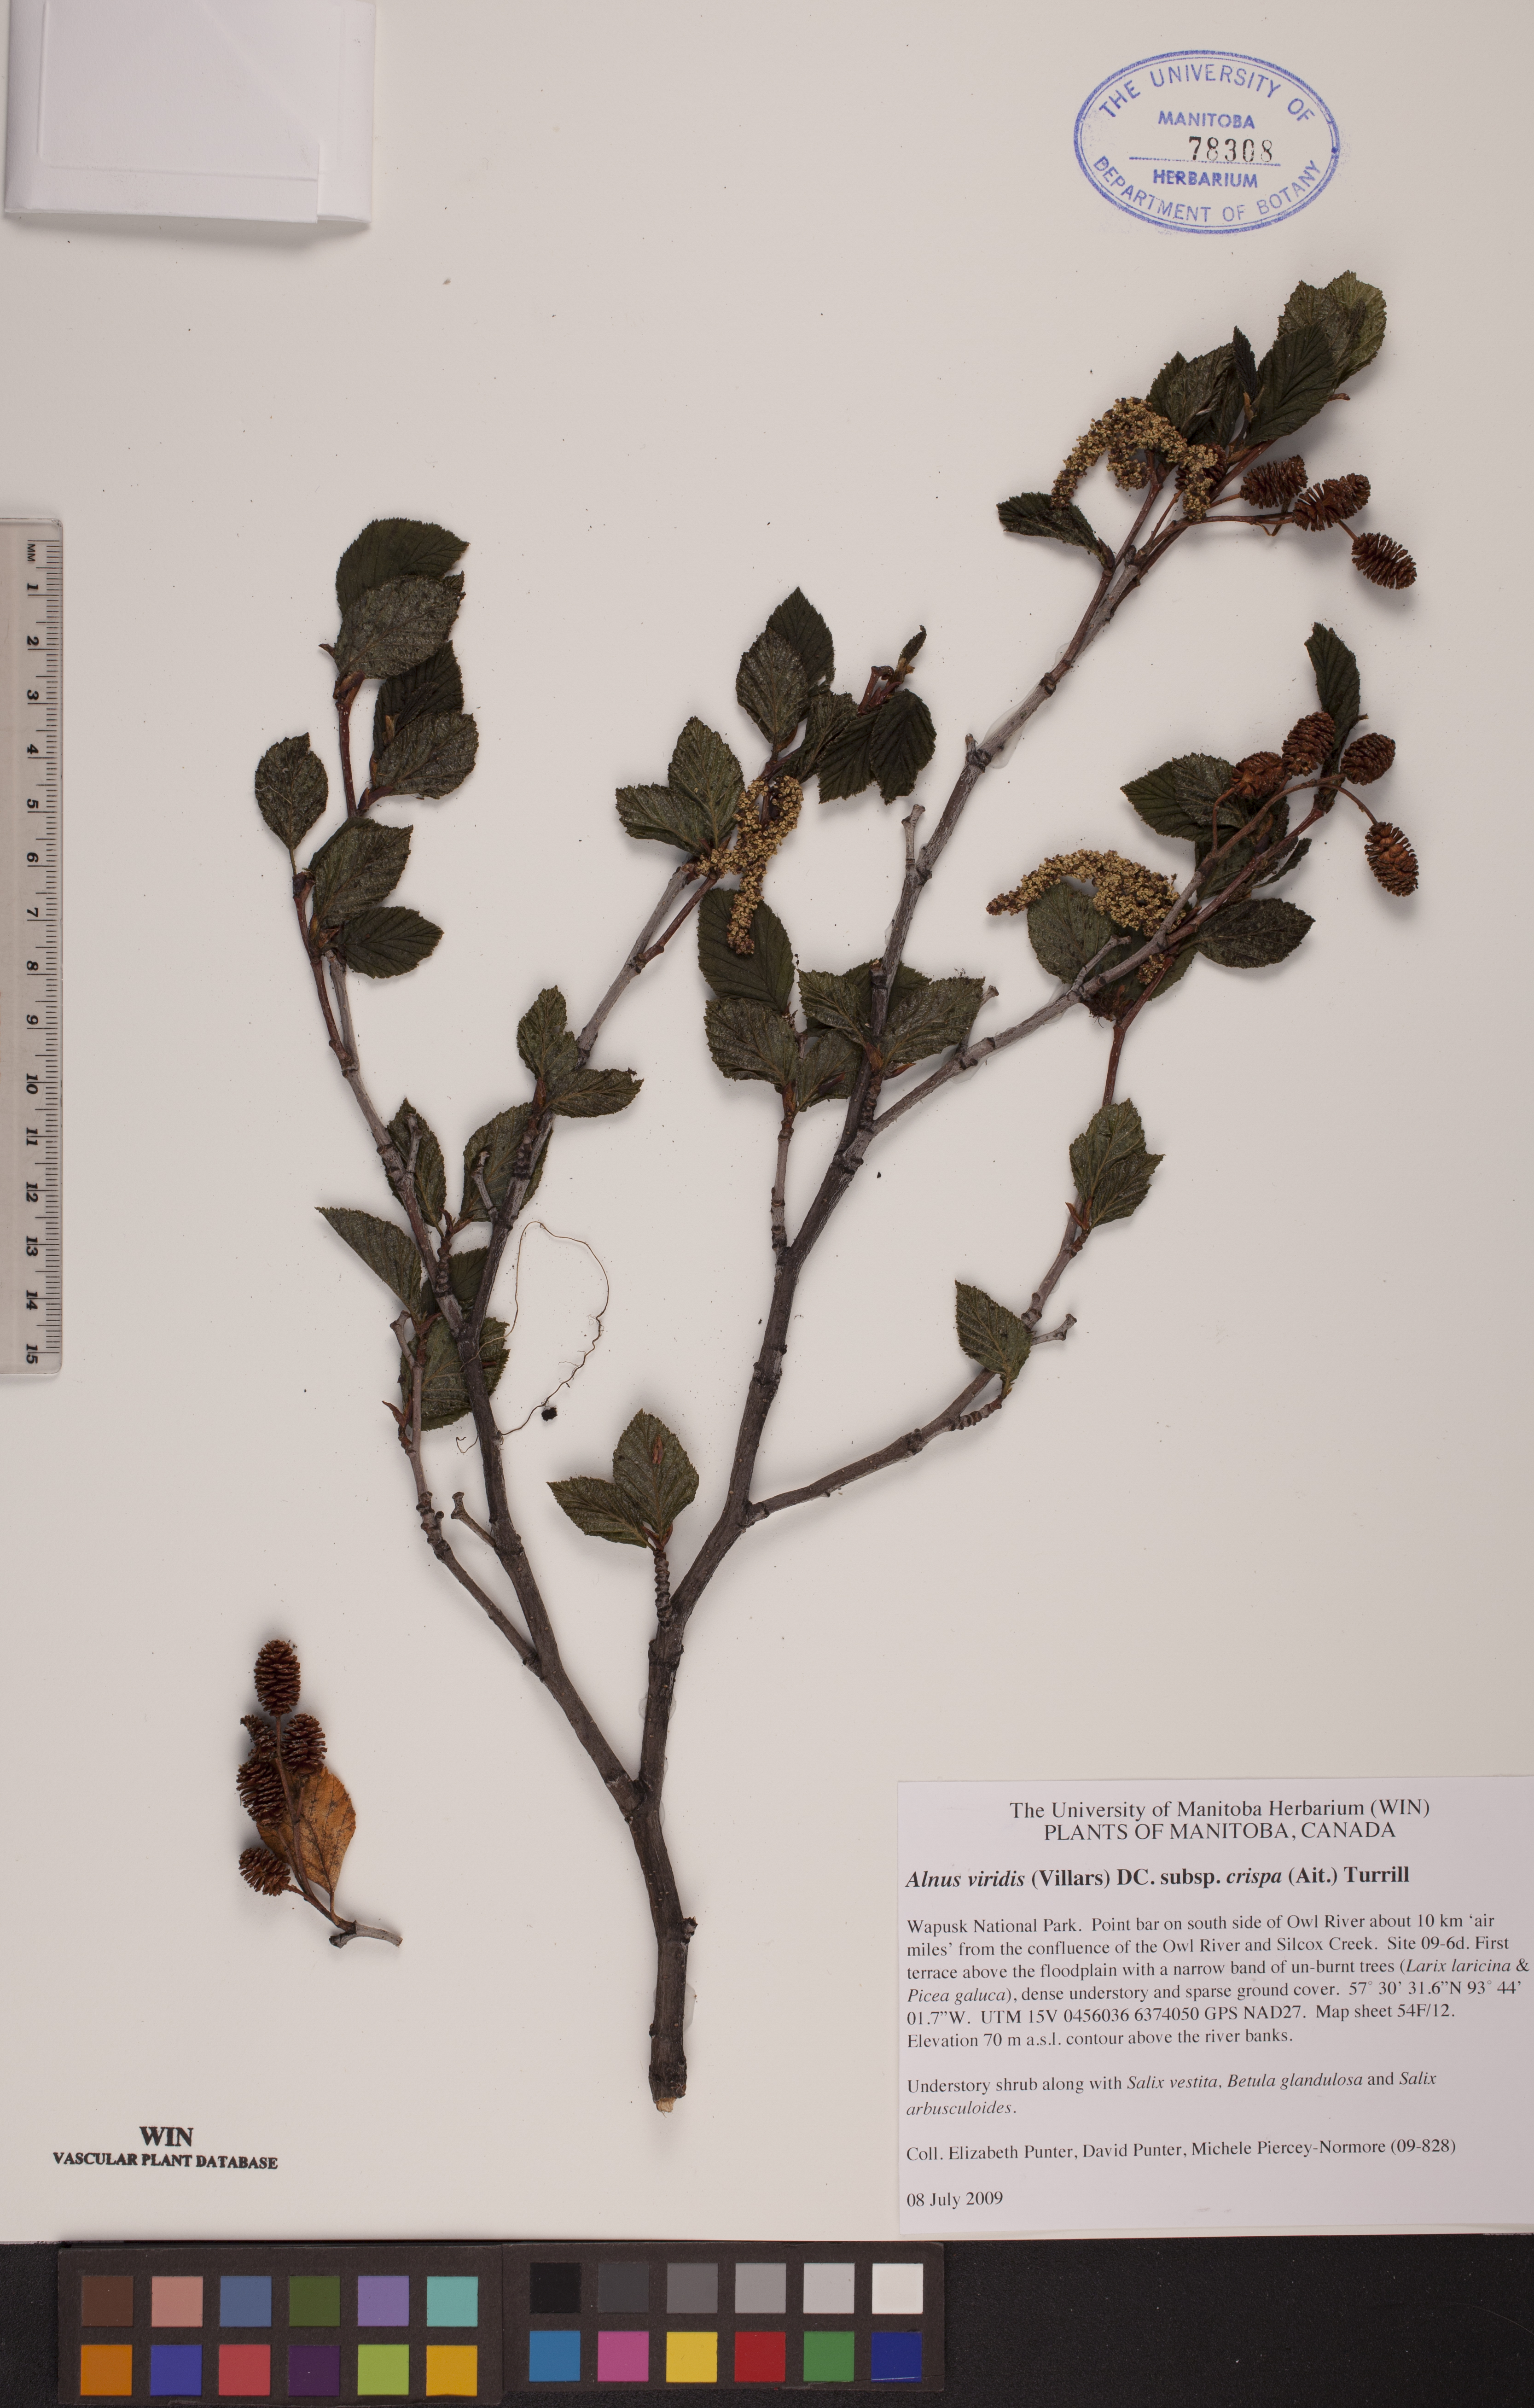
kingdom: Plantae
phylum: Tracheophyta
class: Magnoliopsida
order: Fagales
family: Betulaceae
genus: Alnus
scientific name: Alnus alnobetula
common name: Green alder
